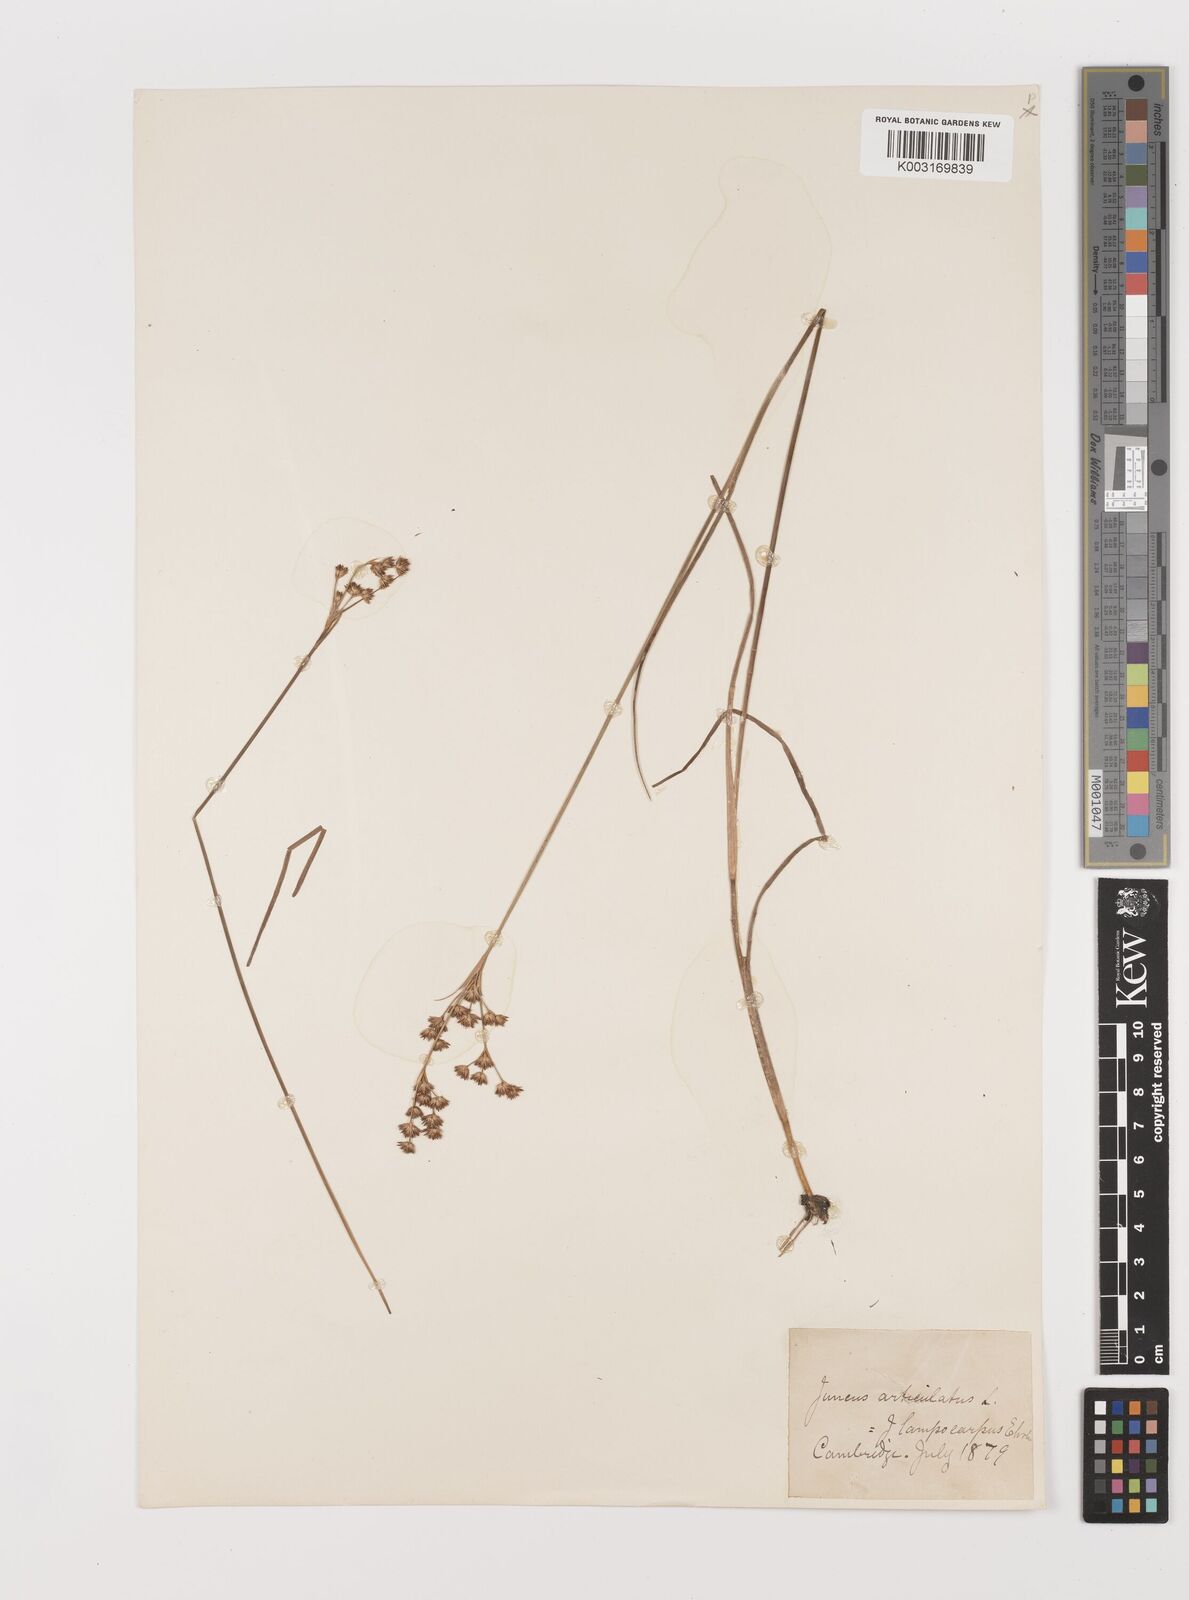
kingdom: Plantae
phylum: Tracheophyta
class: Liliopsida
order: Poales
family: Juncaceae
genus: Juncus
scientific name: Juncus articulatus
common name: Jointed rush
